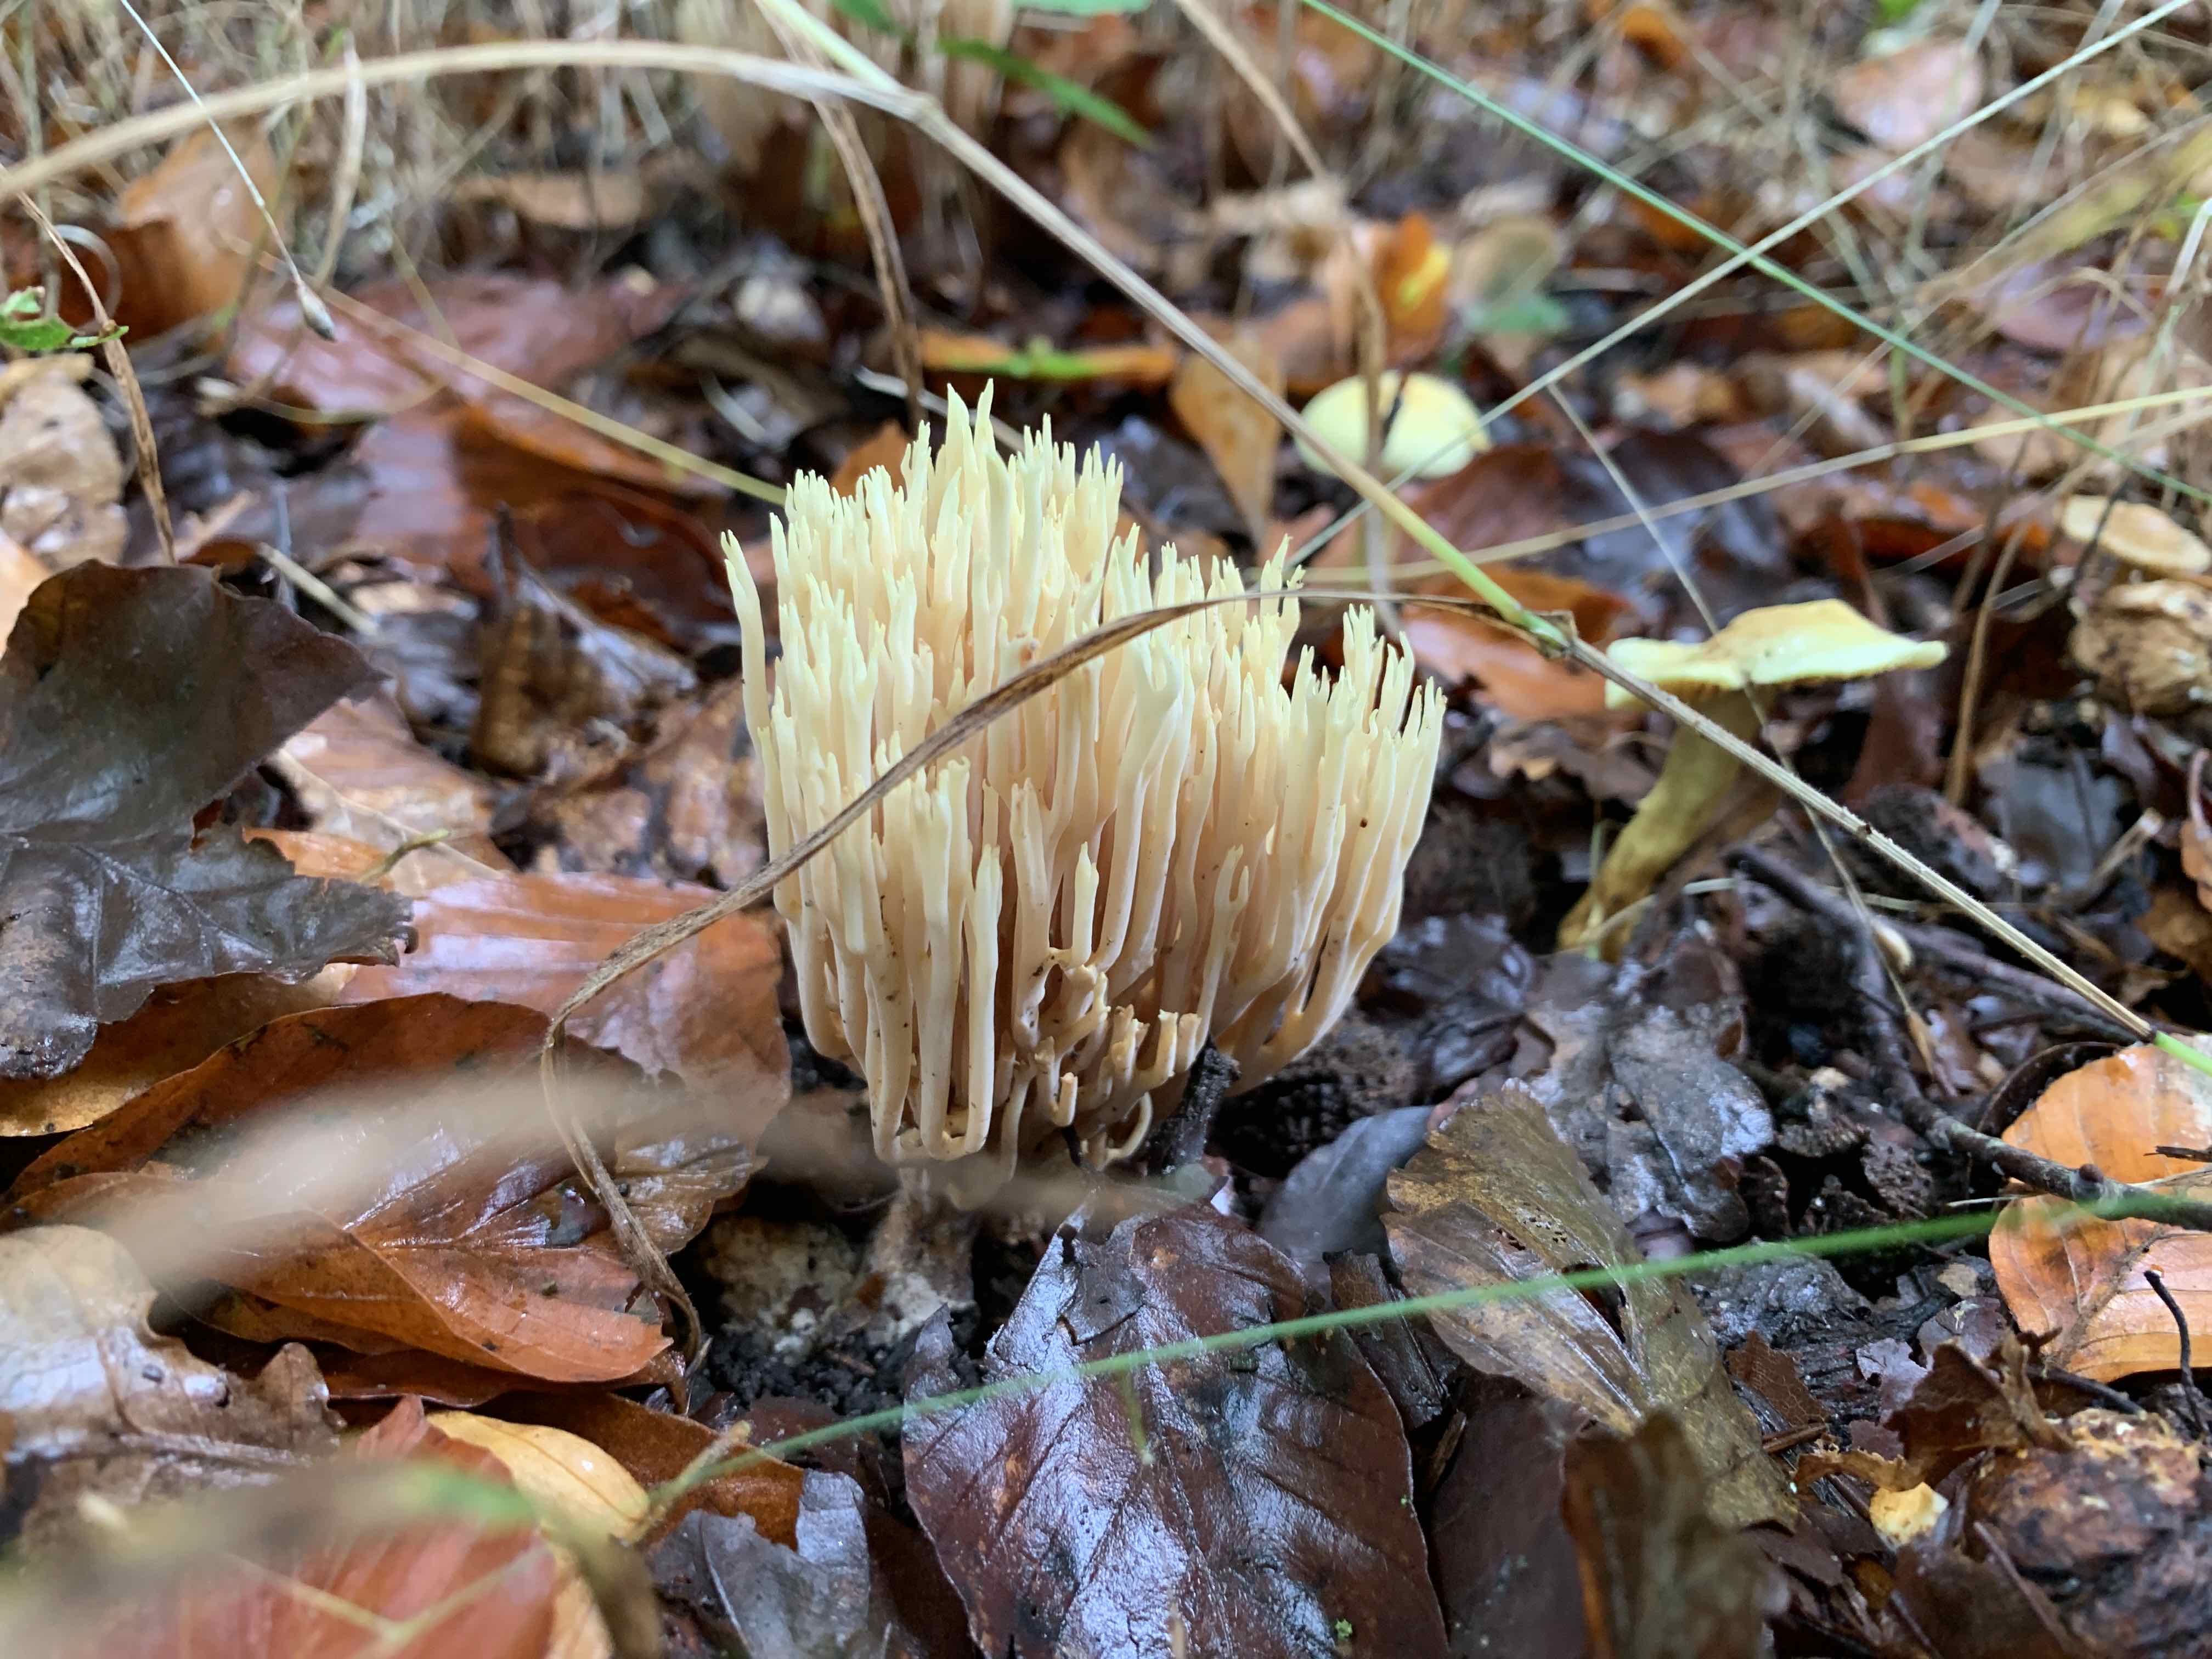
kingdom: Fungi
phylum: Basidiomycota
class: Agaricomycetes
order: Gomphales
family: Gomphaceae
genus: Ramaria
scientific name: Ramaria stricta
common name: rank koralsvamp
